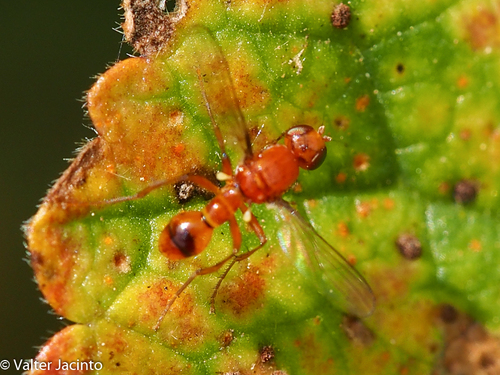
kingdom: Animalia
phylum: Arthropoda
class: Insecta
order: Diptera
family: Sepsidae
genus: Sepsis
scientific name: Sepsis lateralis
